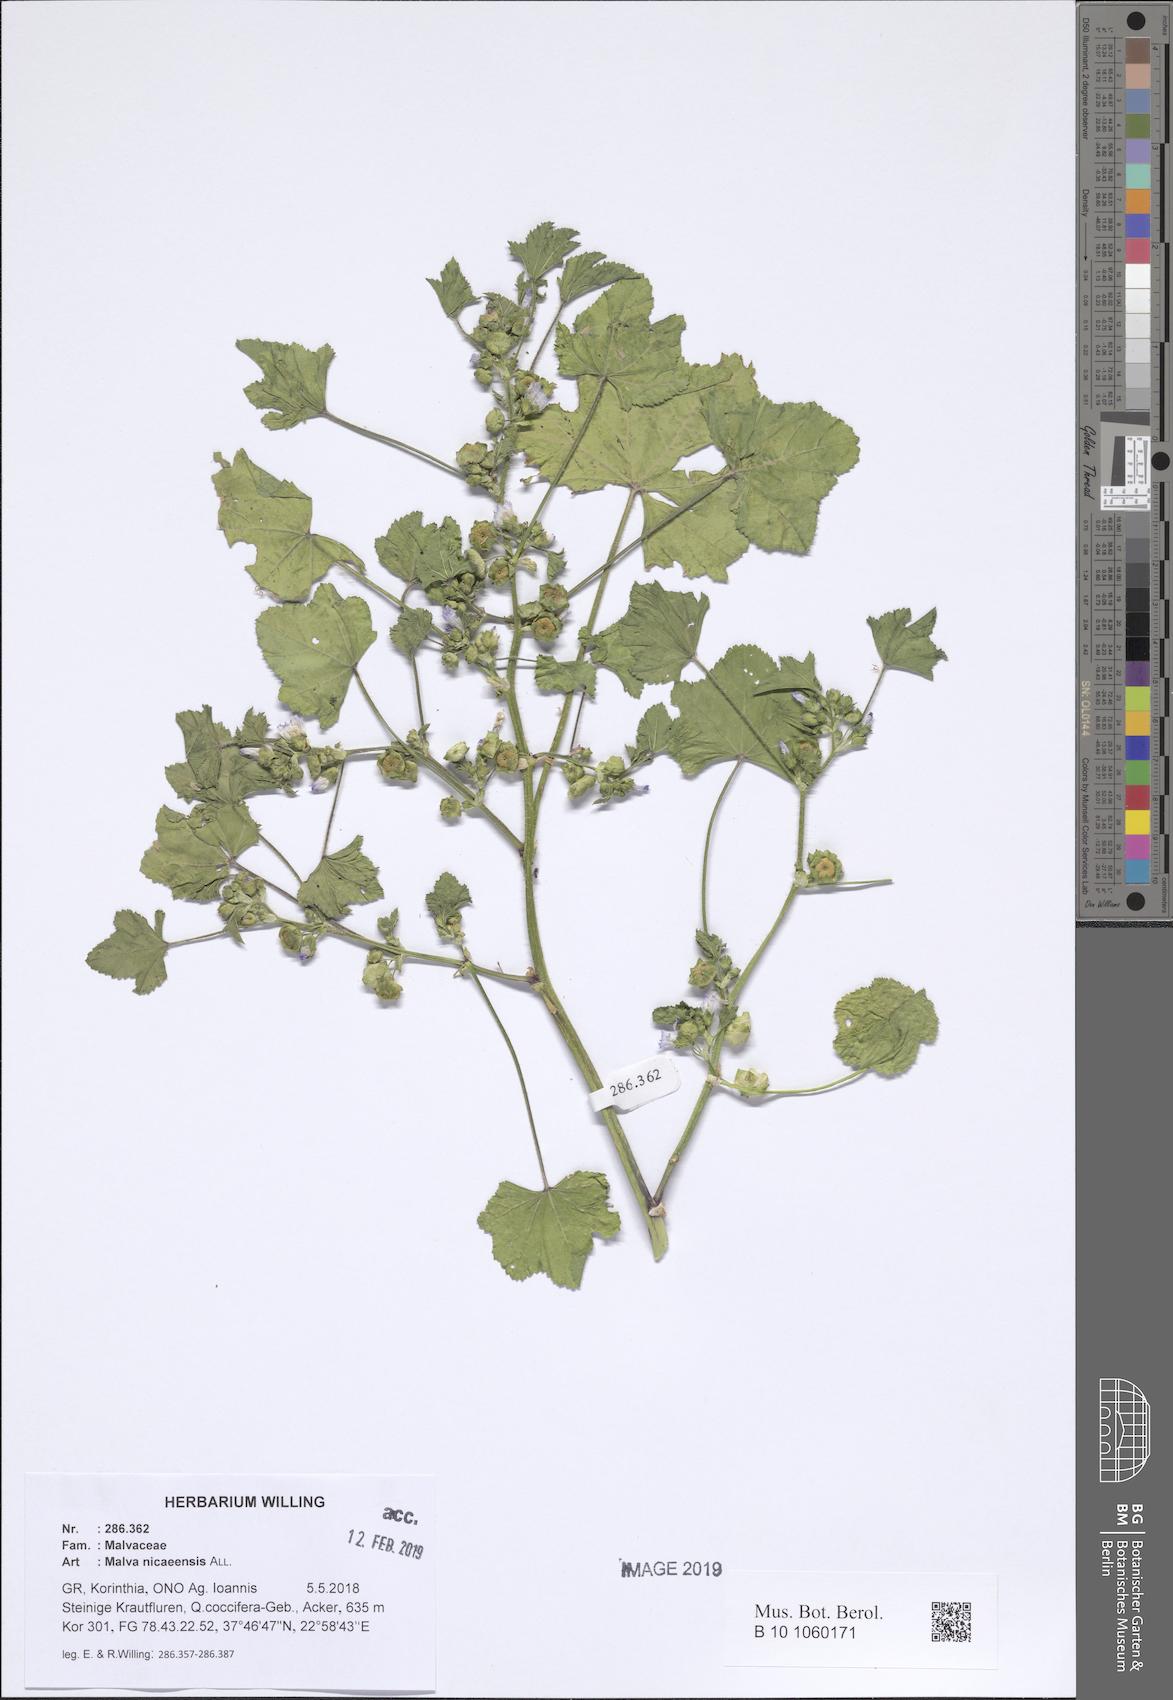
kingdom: Plantae
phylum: Tracheophyta
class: Magnoliopsida
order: Malvales
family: Malvaceae
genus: Malva
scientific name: Malva nicaeensis
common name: French mallow
